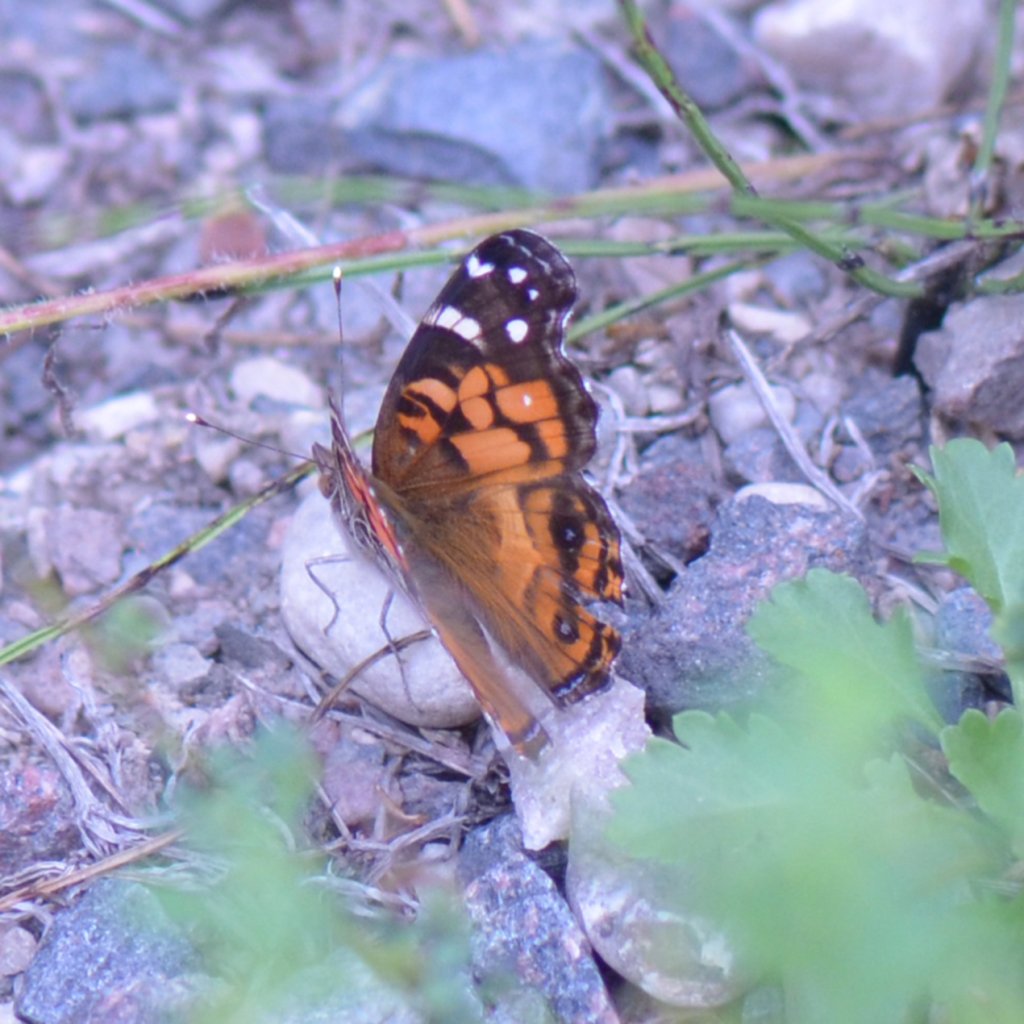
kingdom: Animalia
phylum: Arthropoda
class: Insecta
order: Lepidoptera
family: Nymphalidae
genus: Vanessa
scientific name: Vanessa virginiensis
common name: American Lady
